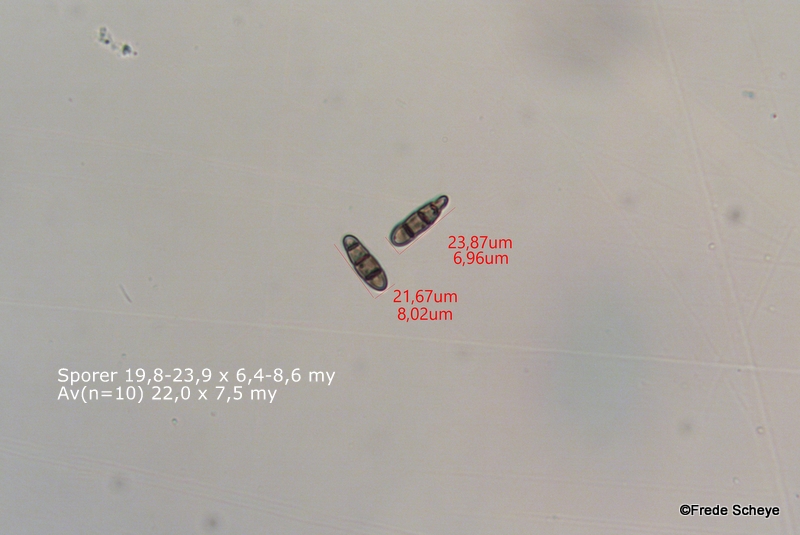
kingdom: Fungi
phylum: Ascomycota
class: Dothideomycetes
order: Hysteriales
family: Hysteriaceae
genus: Hysterium
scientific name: Hysterium acuminatum
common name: almindelig kulmund
